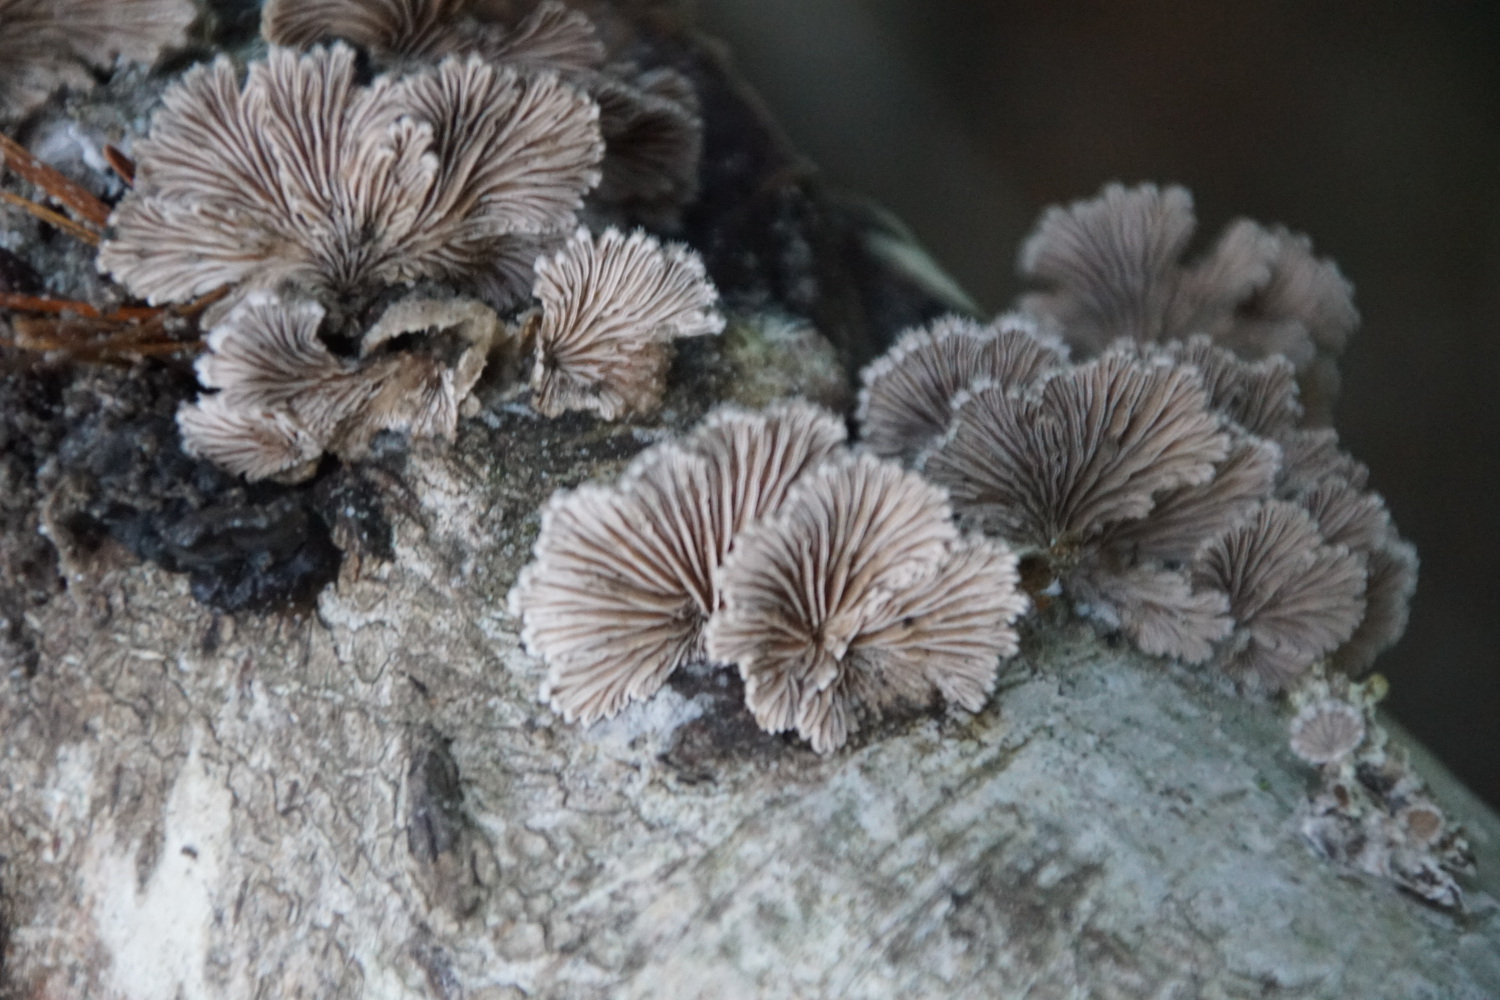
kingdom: Fungi
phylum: Basidiomycota
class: Agaricomycetes
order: Agaricales
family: Schizophyllaceae
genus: Schizophyllum
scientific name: Schizophyllum commune
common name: kløvblad
